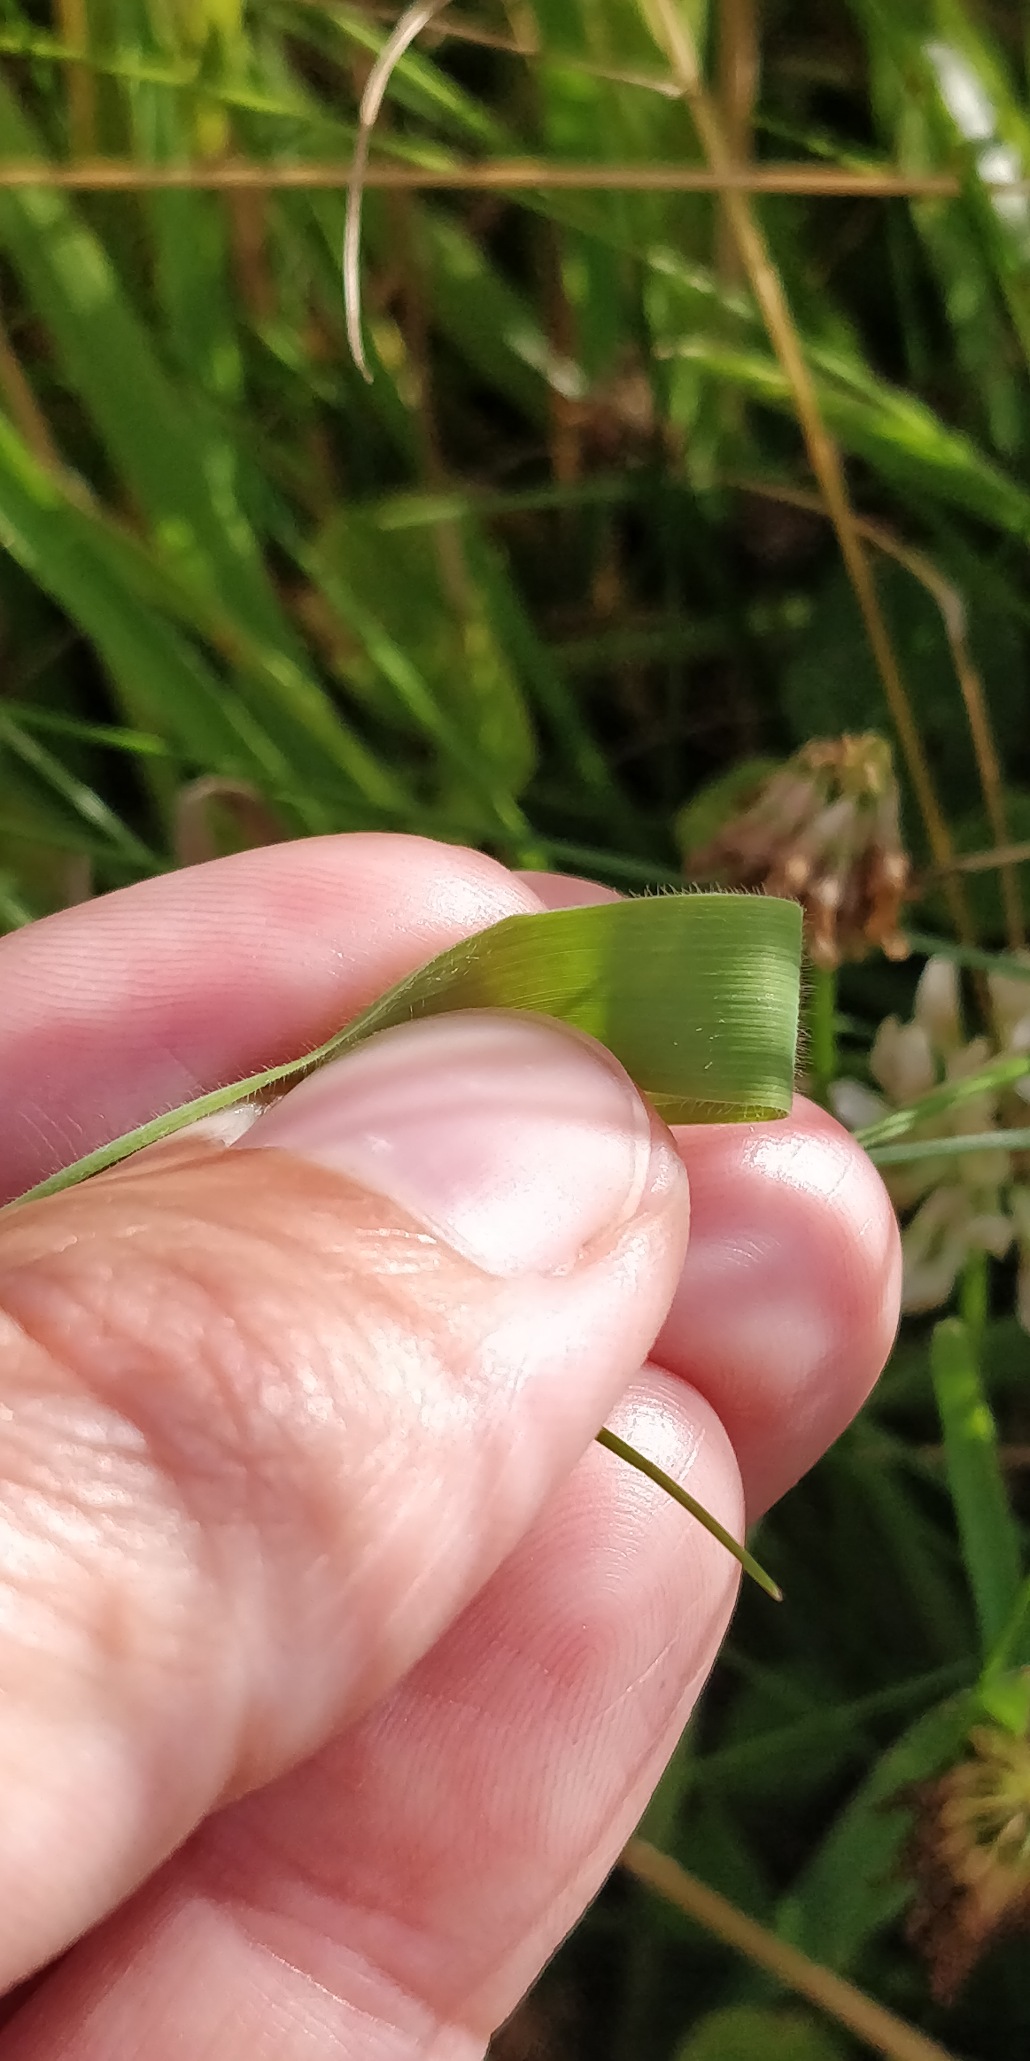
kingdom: Plantae
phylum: Tracheophyta
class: Liliopsida
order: Poales
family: Poaceae
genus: Holcus
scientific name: Holcus lanatus
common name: Fløjlsgræs
